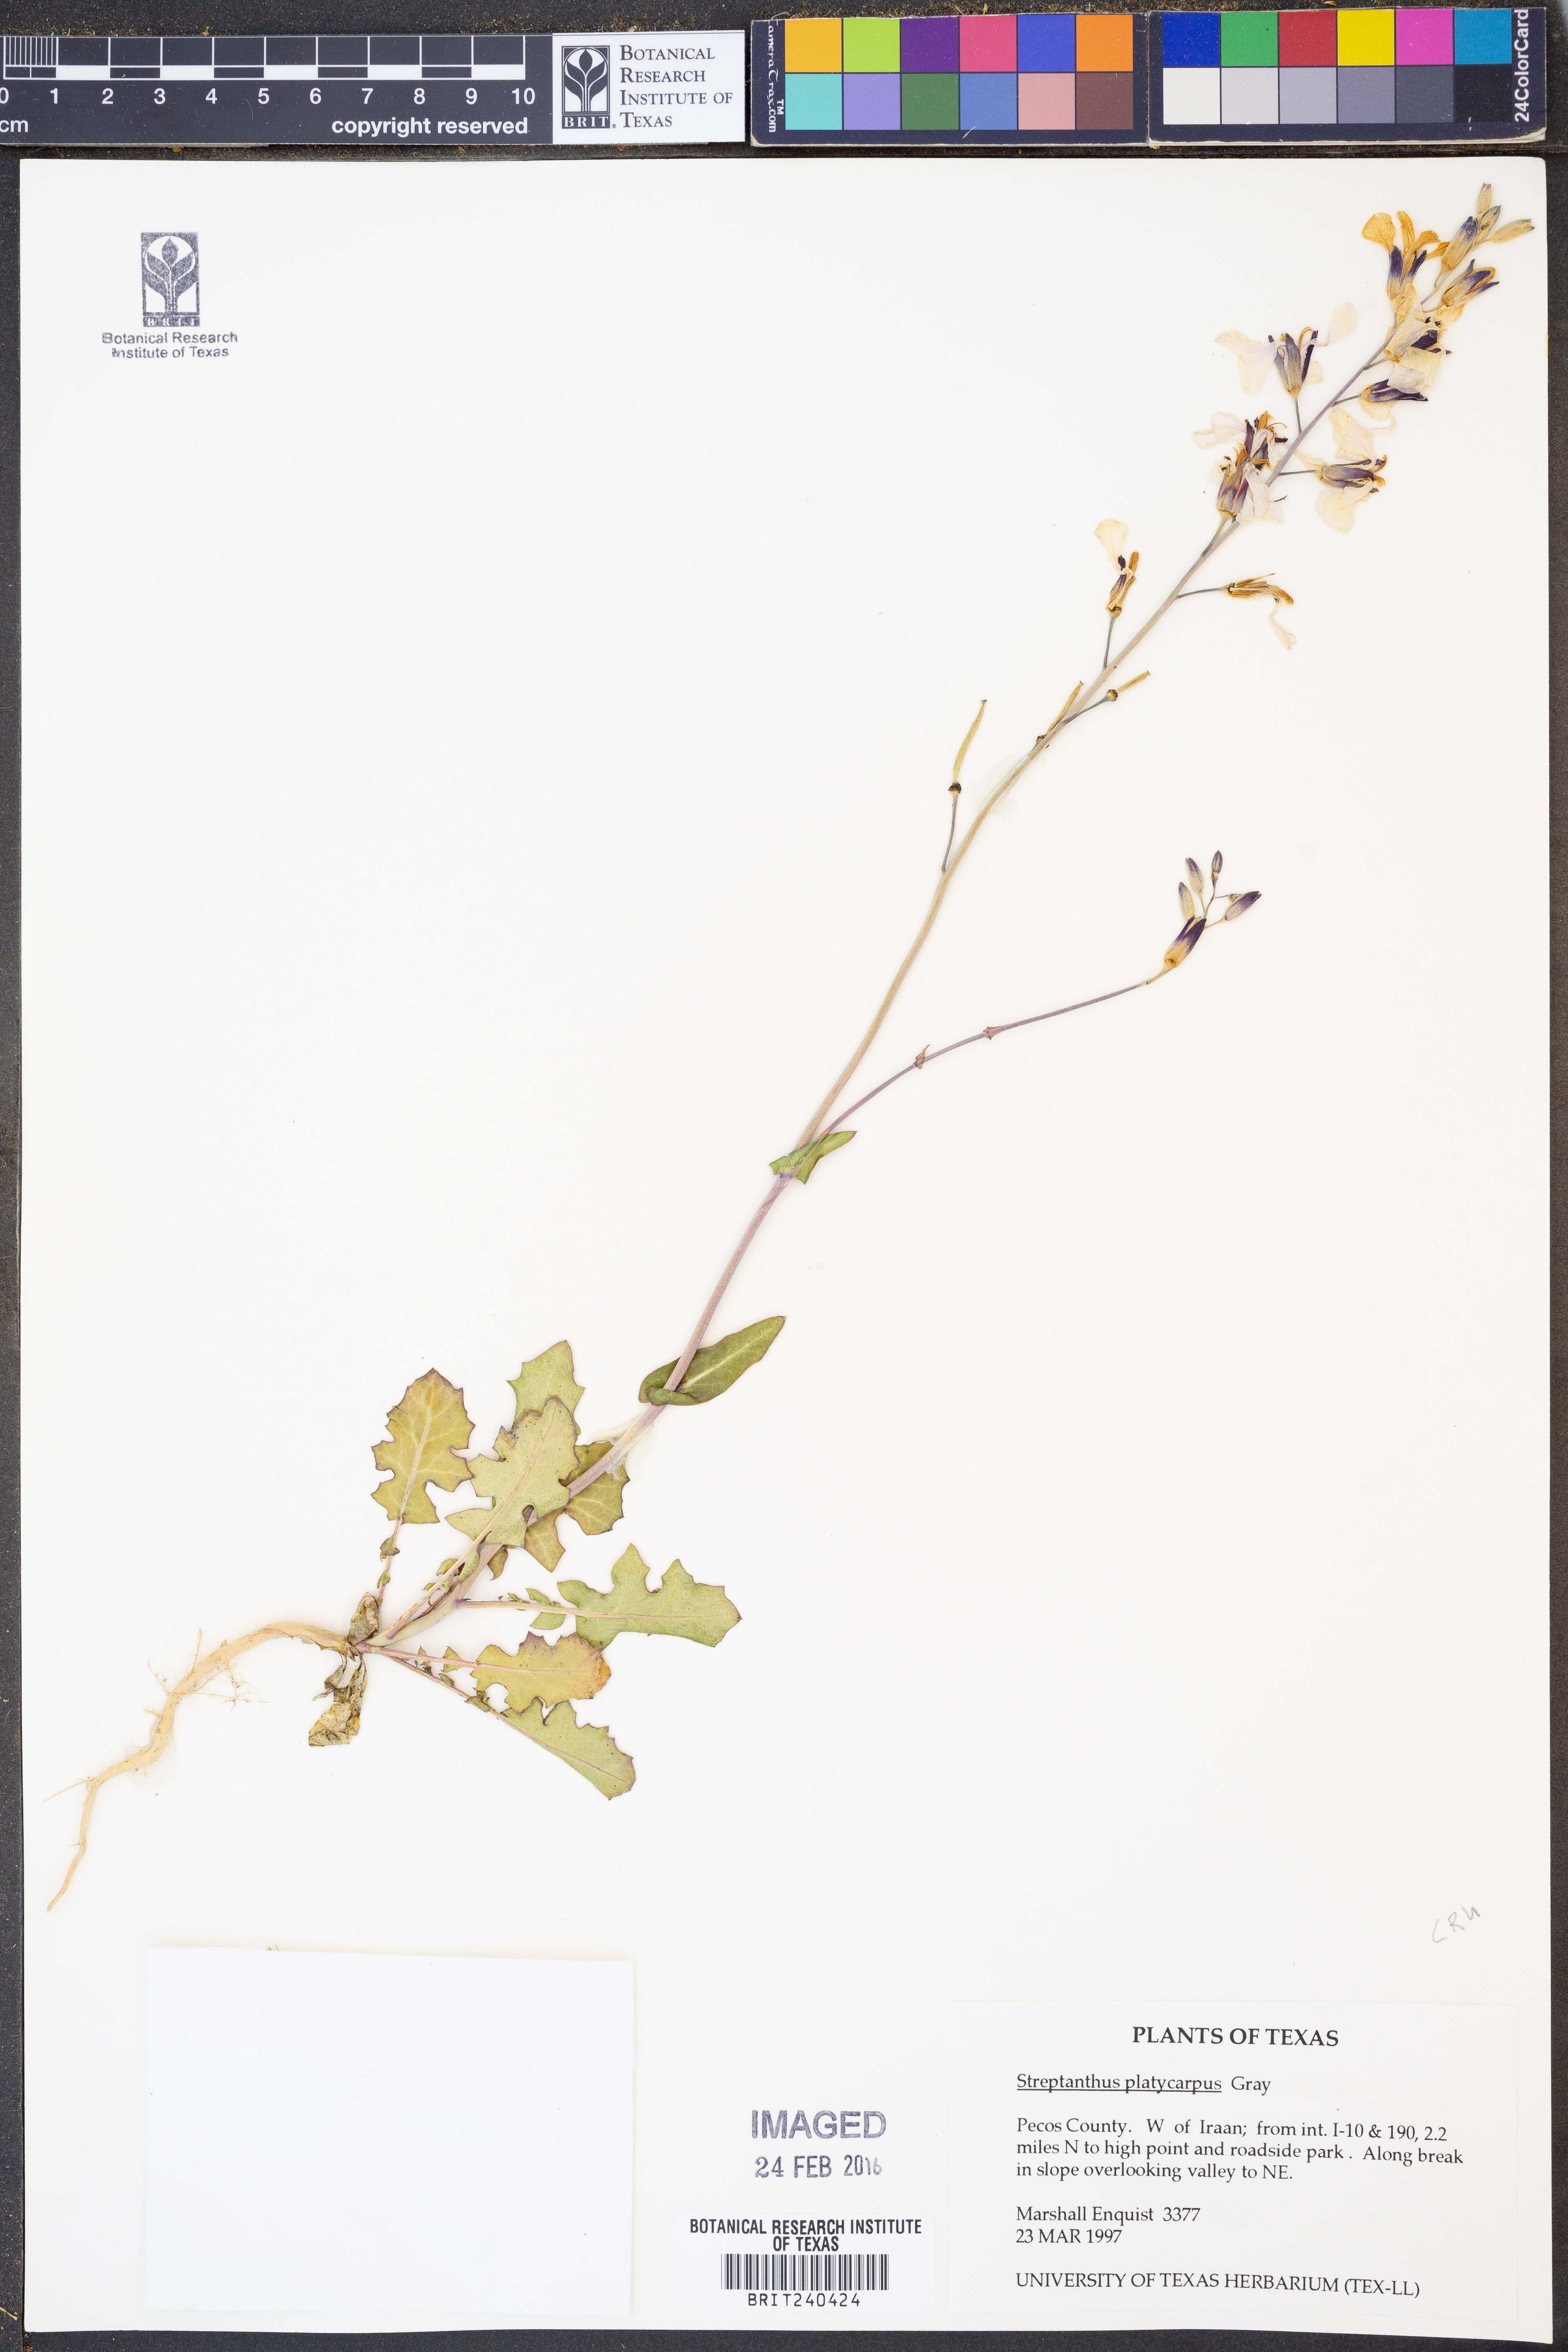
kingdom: Plantae
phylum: Tracheophyta
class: Magnoliopsida
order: Brassicales
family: Brassicaceae
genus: Streptanthus
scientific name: Streptanthus platycarpus
